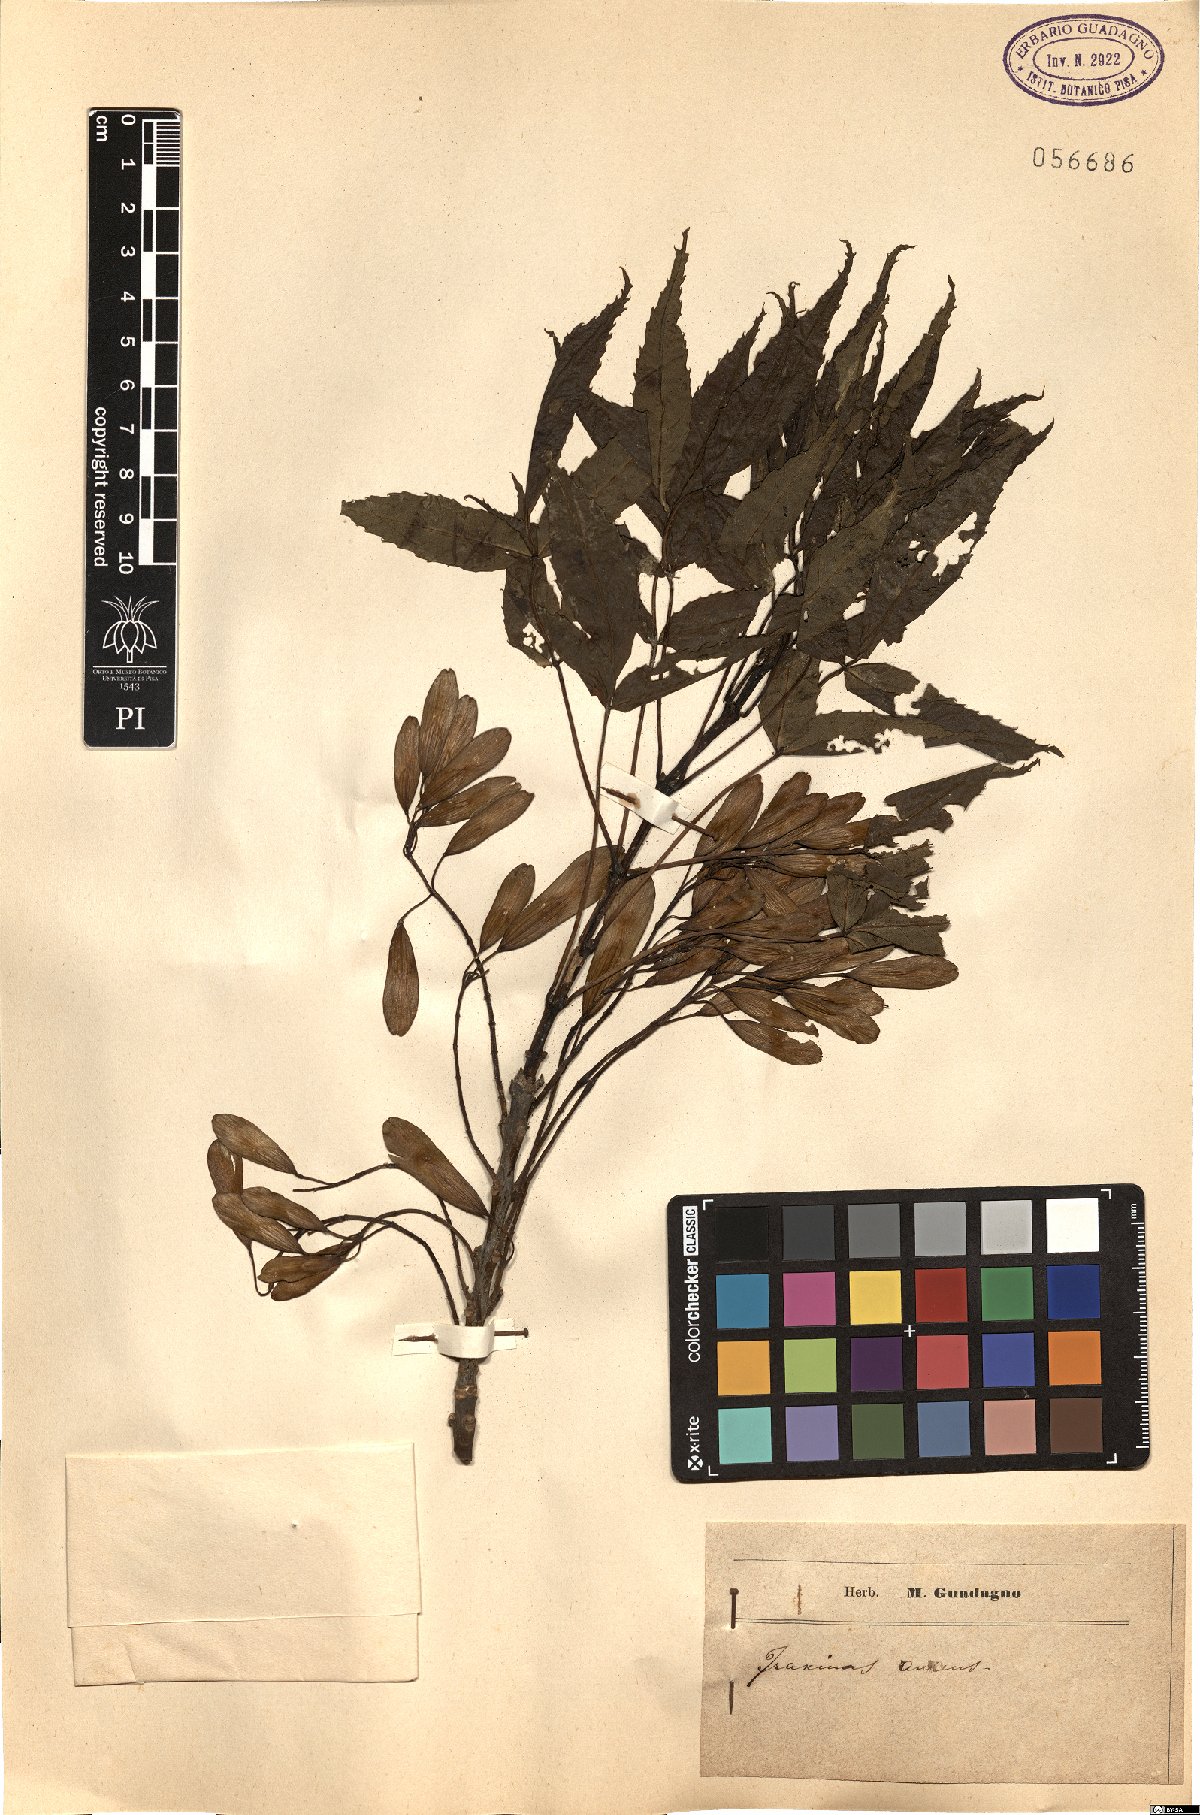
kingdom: Plantae
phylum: Tracheophyta
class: Magnoliopsida
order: Lamiales
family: Oleaceae
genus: Fraxinus
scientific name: Fraxinus ornus
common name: Manna ash
